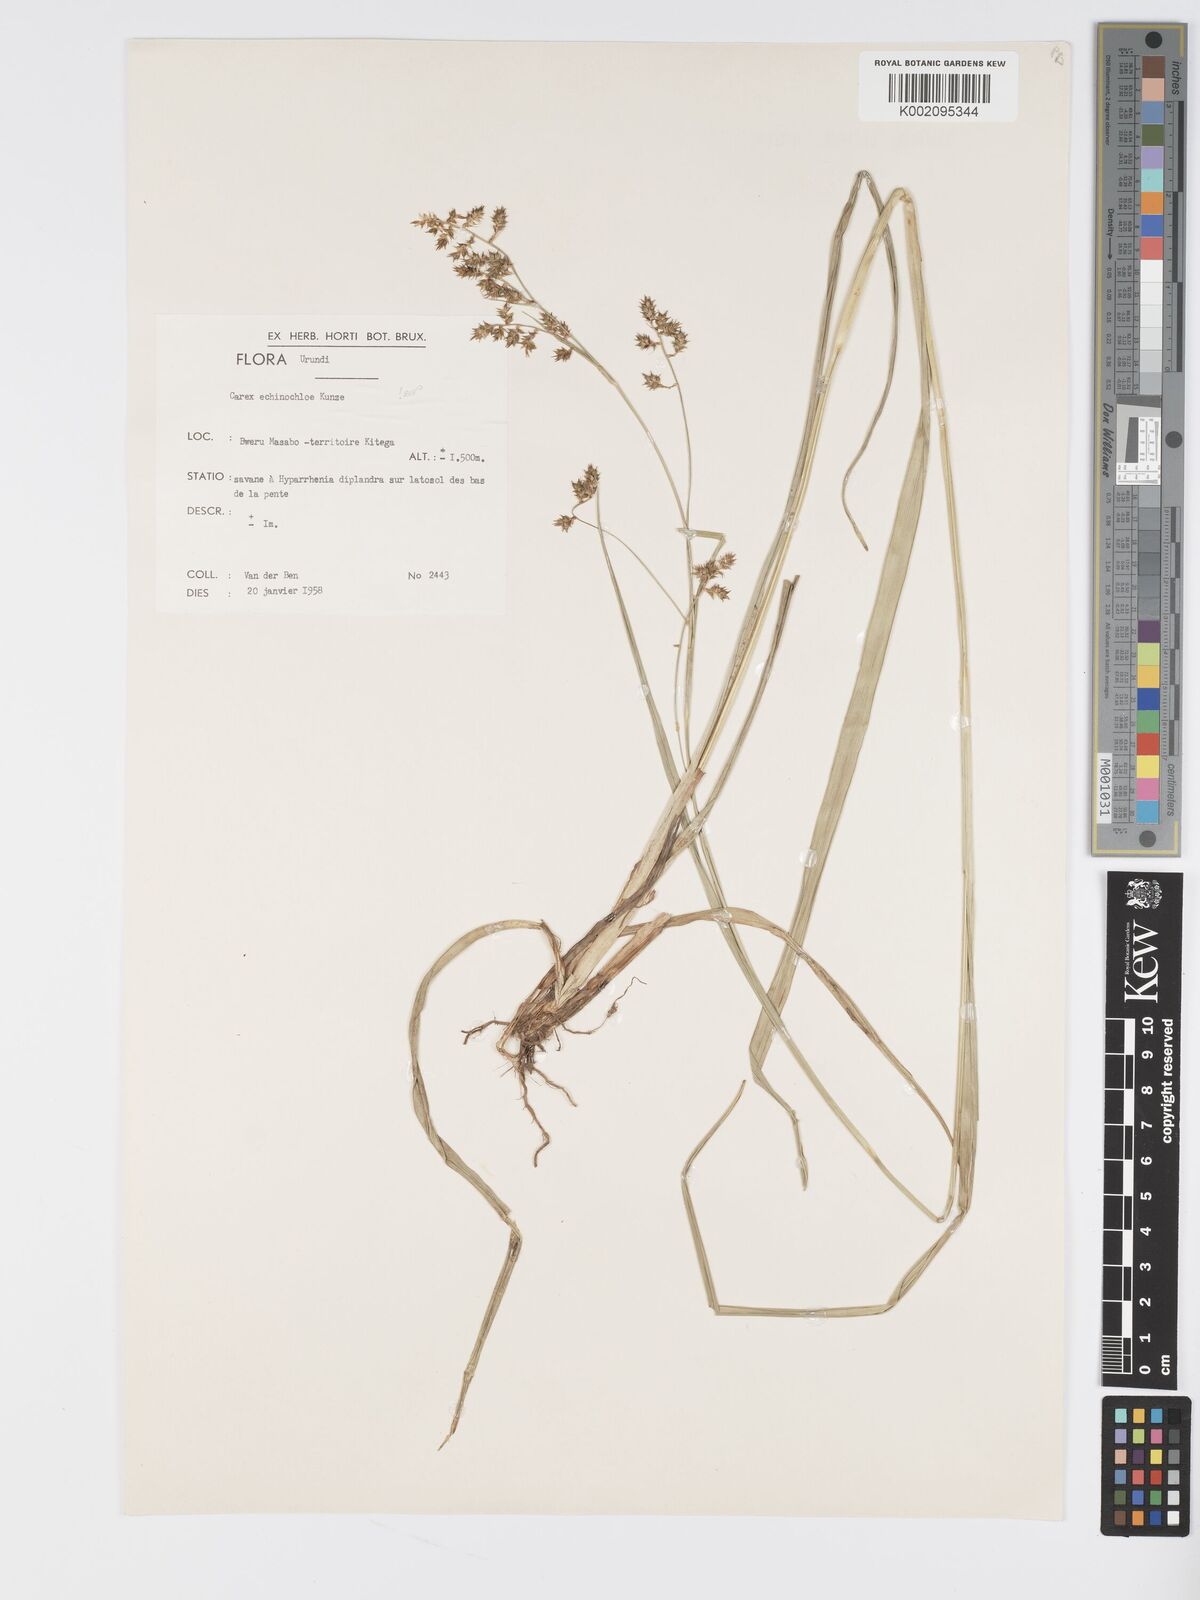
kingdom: Plantae
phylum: Tracheophyta
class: Liliopsida
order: Poales
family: Cyperaceae
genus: Carex
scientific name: Carex echinochloe
